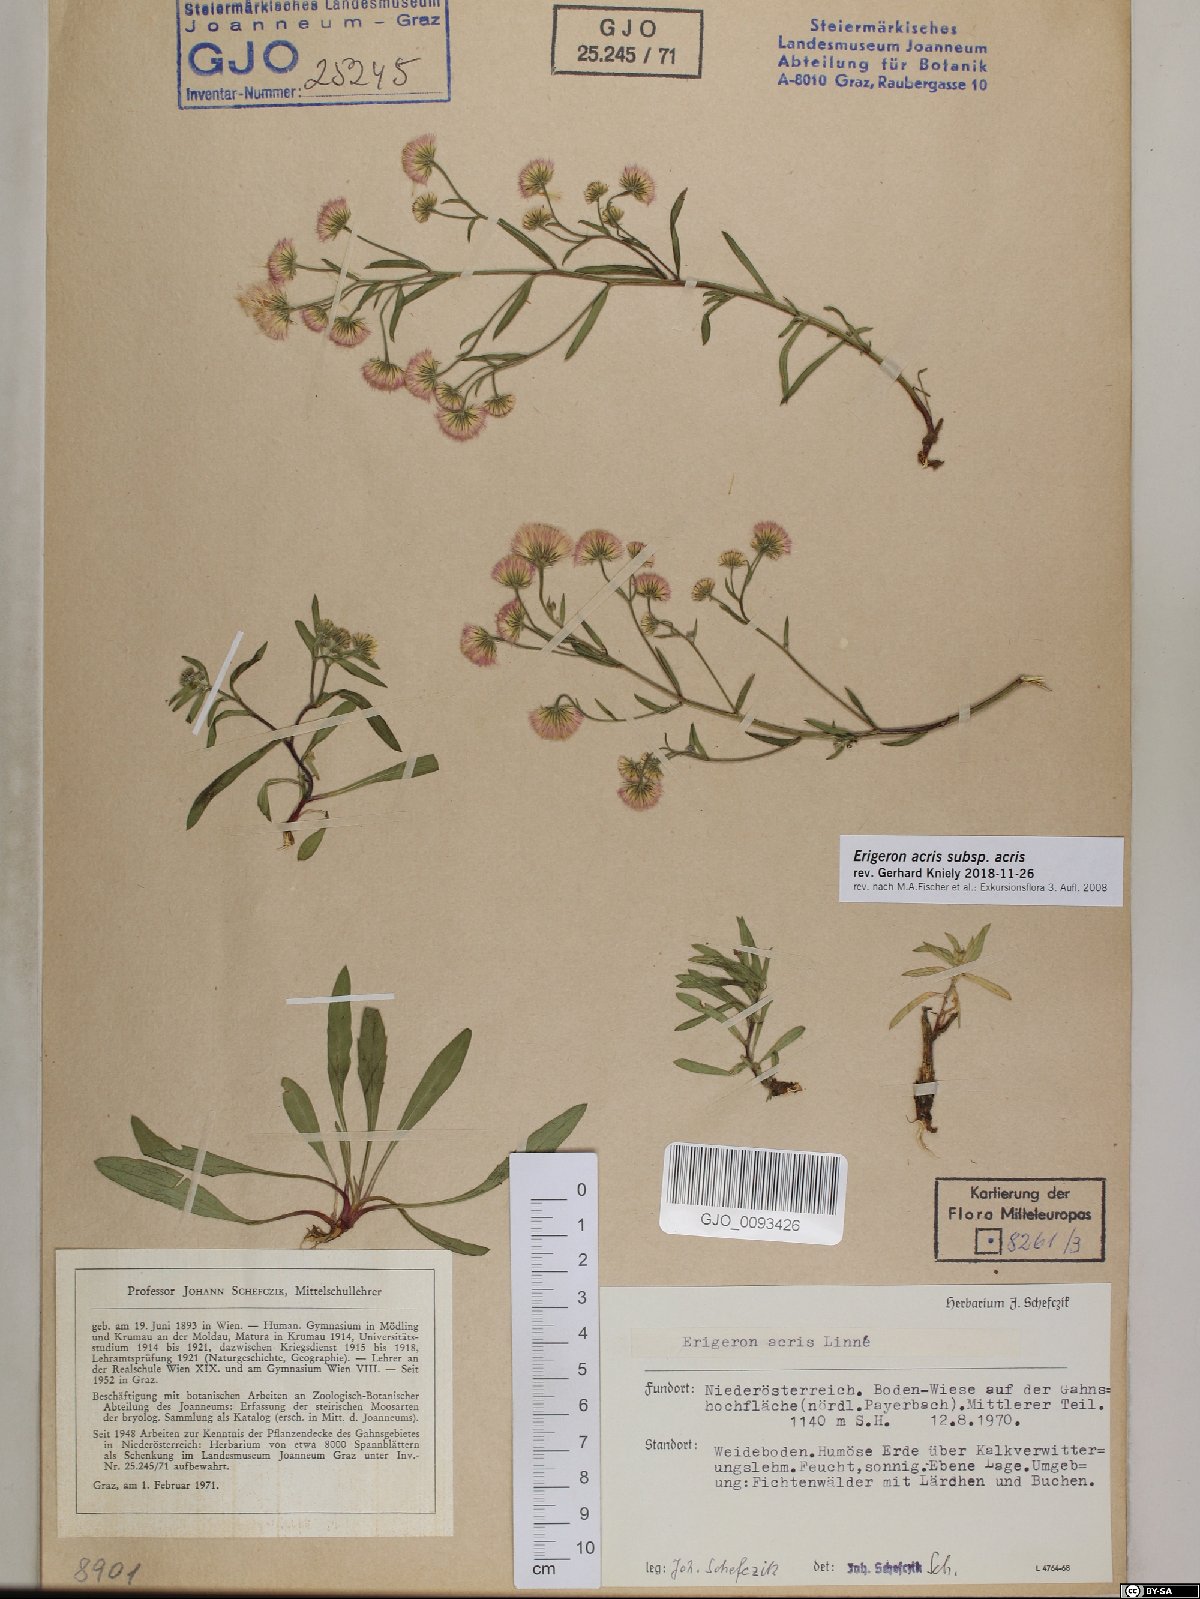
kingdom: Plantae
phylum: Tracheophyta
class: Magnoliopsida
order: Asterales
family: Asteraceae
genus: Erigeron
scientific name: Erigeron acris
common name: Blue fleabane
